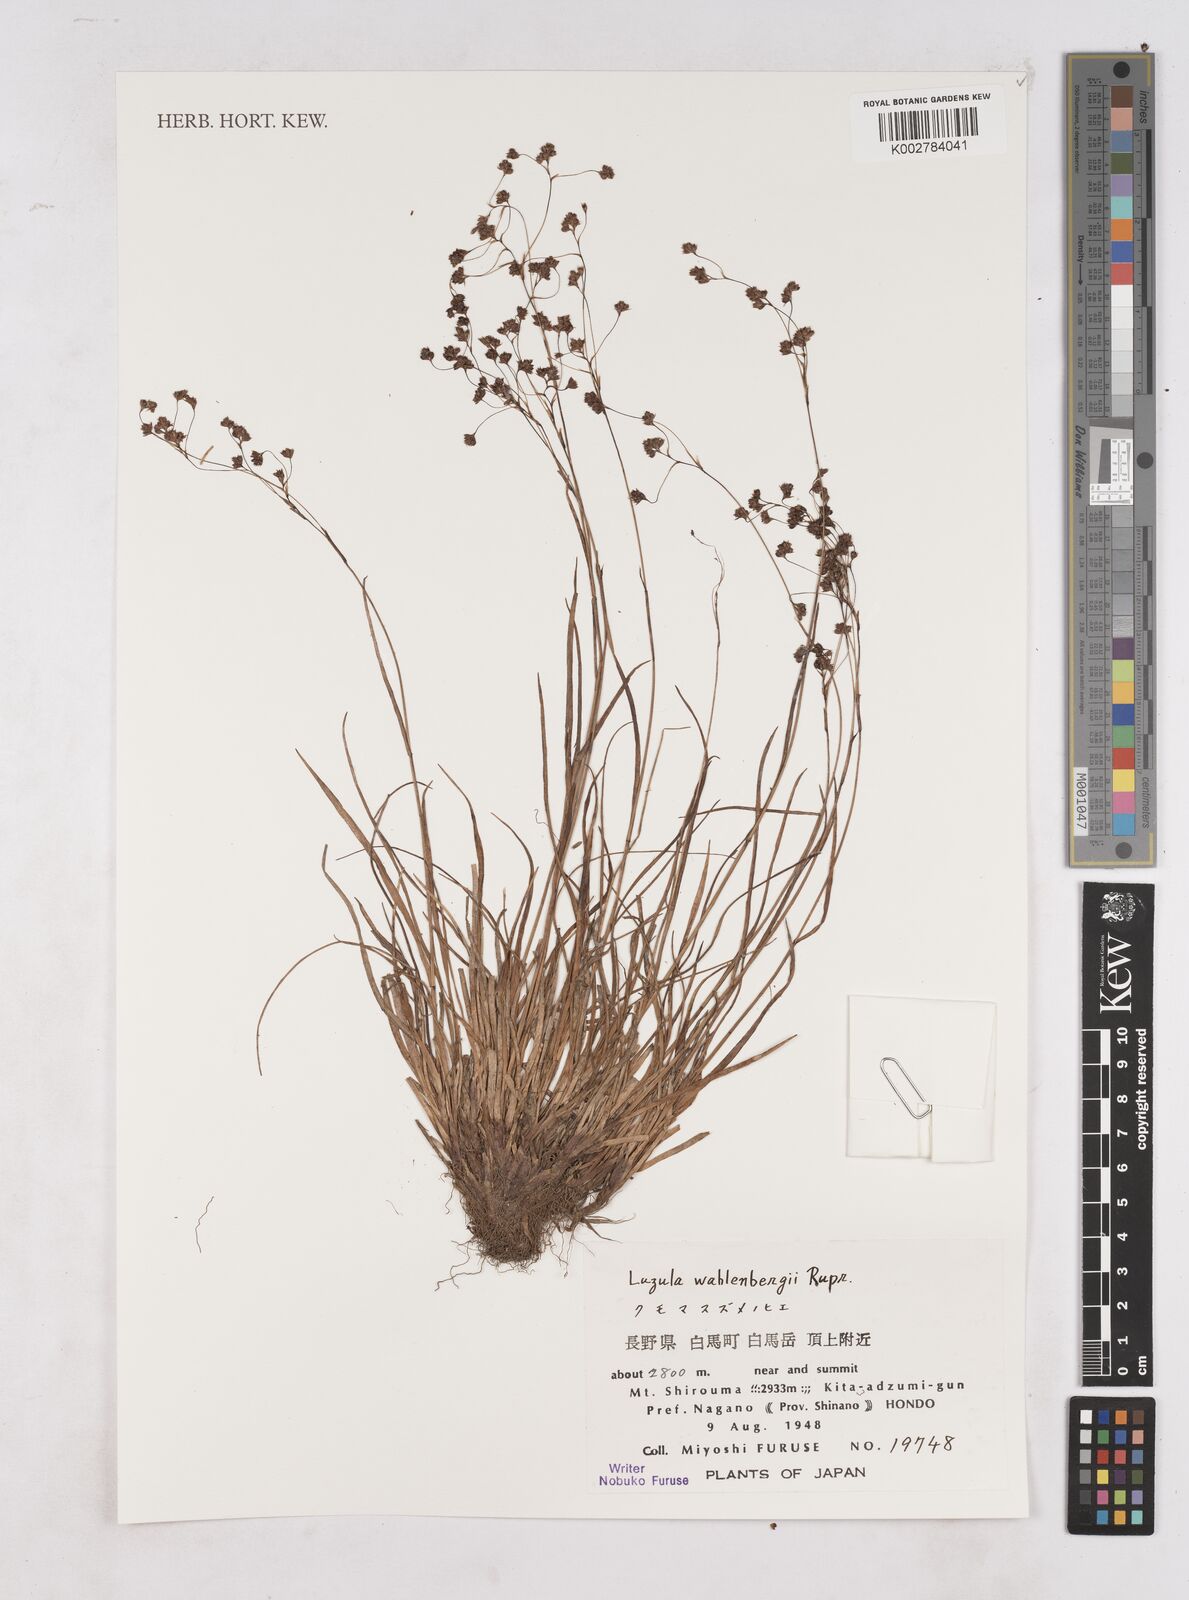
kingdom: Plantae
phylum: Tracheophyta
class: Liliopsida
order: Poales
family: Juncaceae
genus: Luzula
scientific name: Luzula wahlenbergii
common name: Wahlenberg's wood-rush
